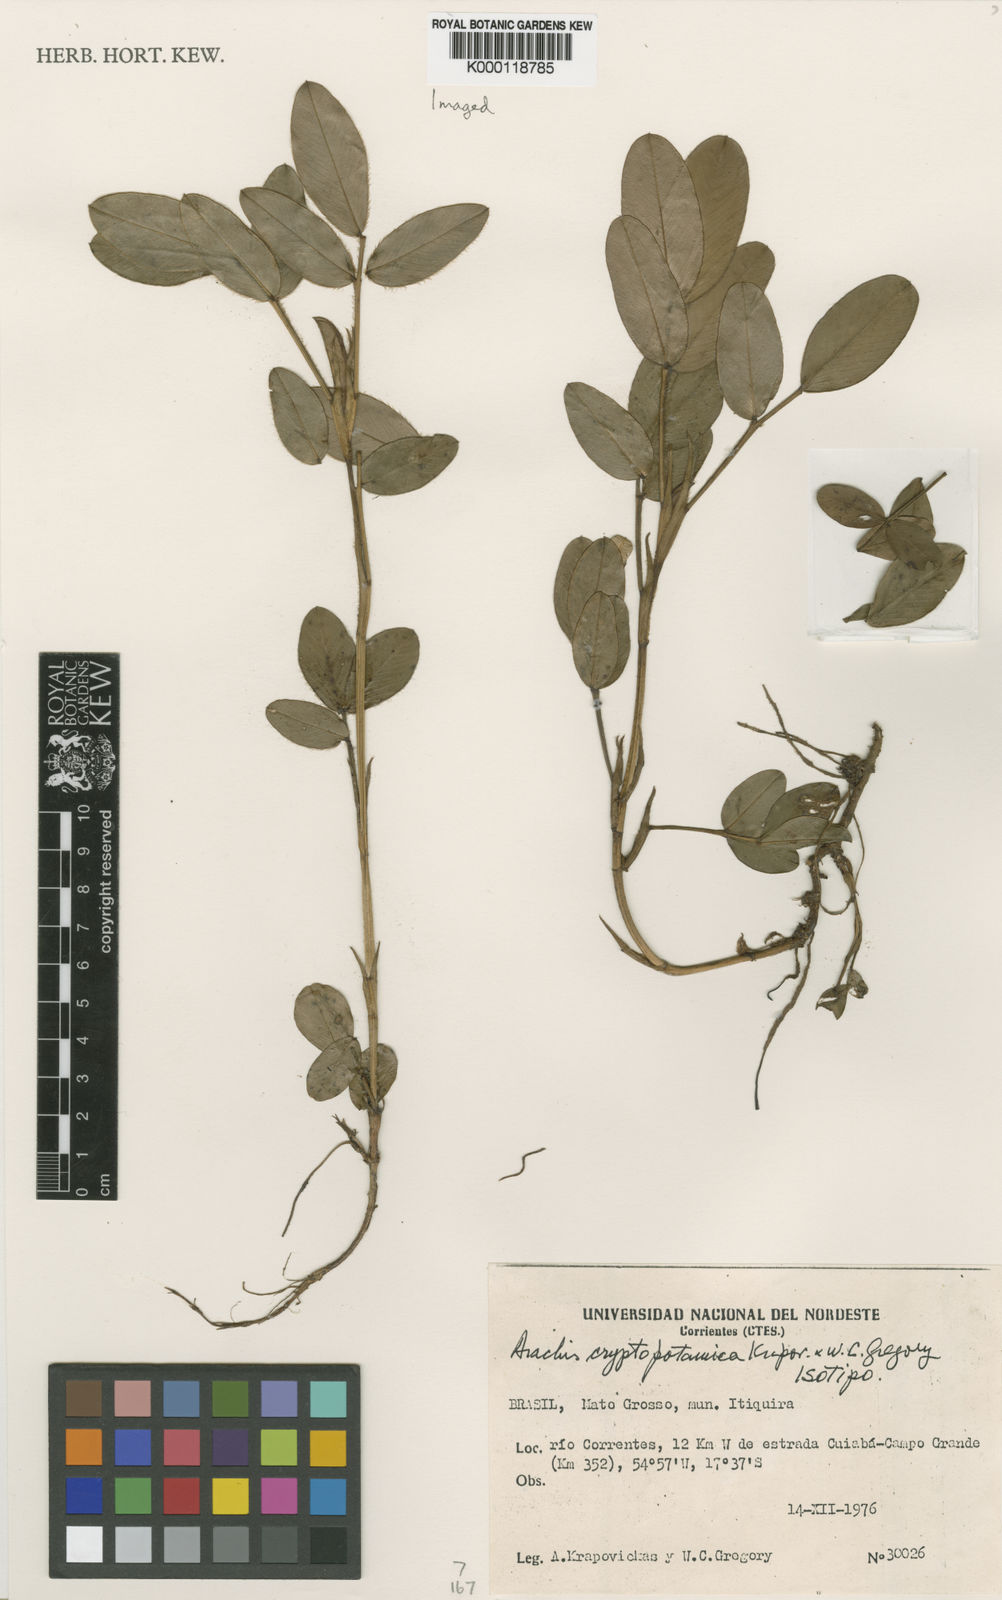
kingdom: Plantae
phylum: Tracheophyta
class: Magnoliopsida
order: Fabales
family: Fabaceae
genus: Arachis
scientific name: Arachis cryptopotamica
